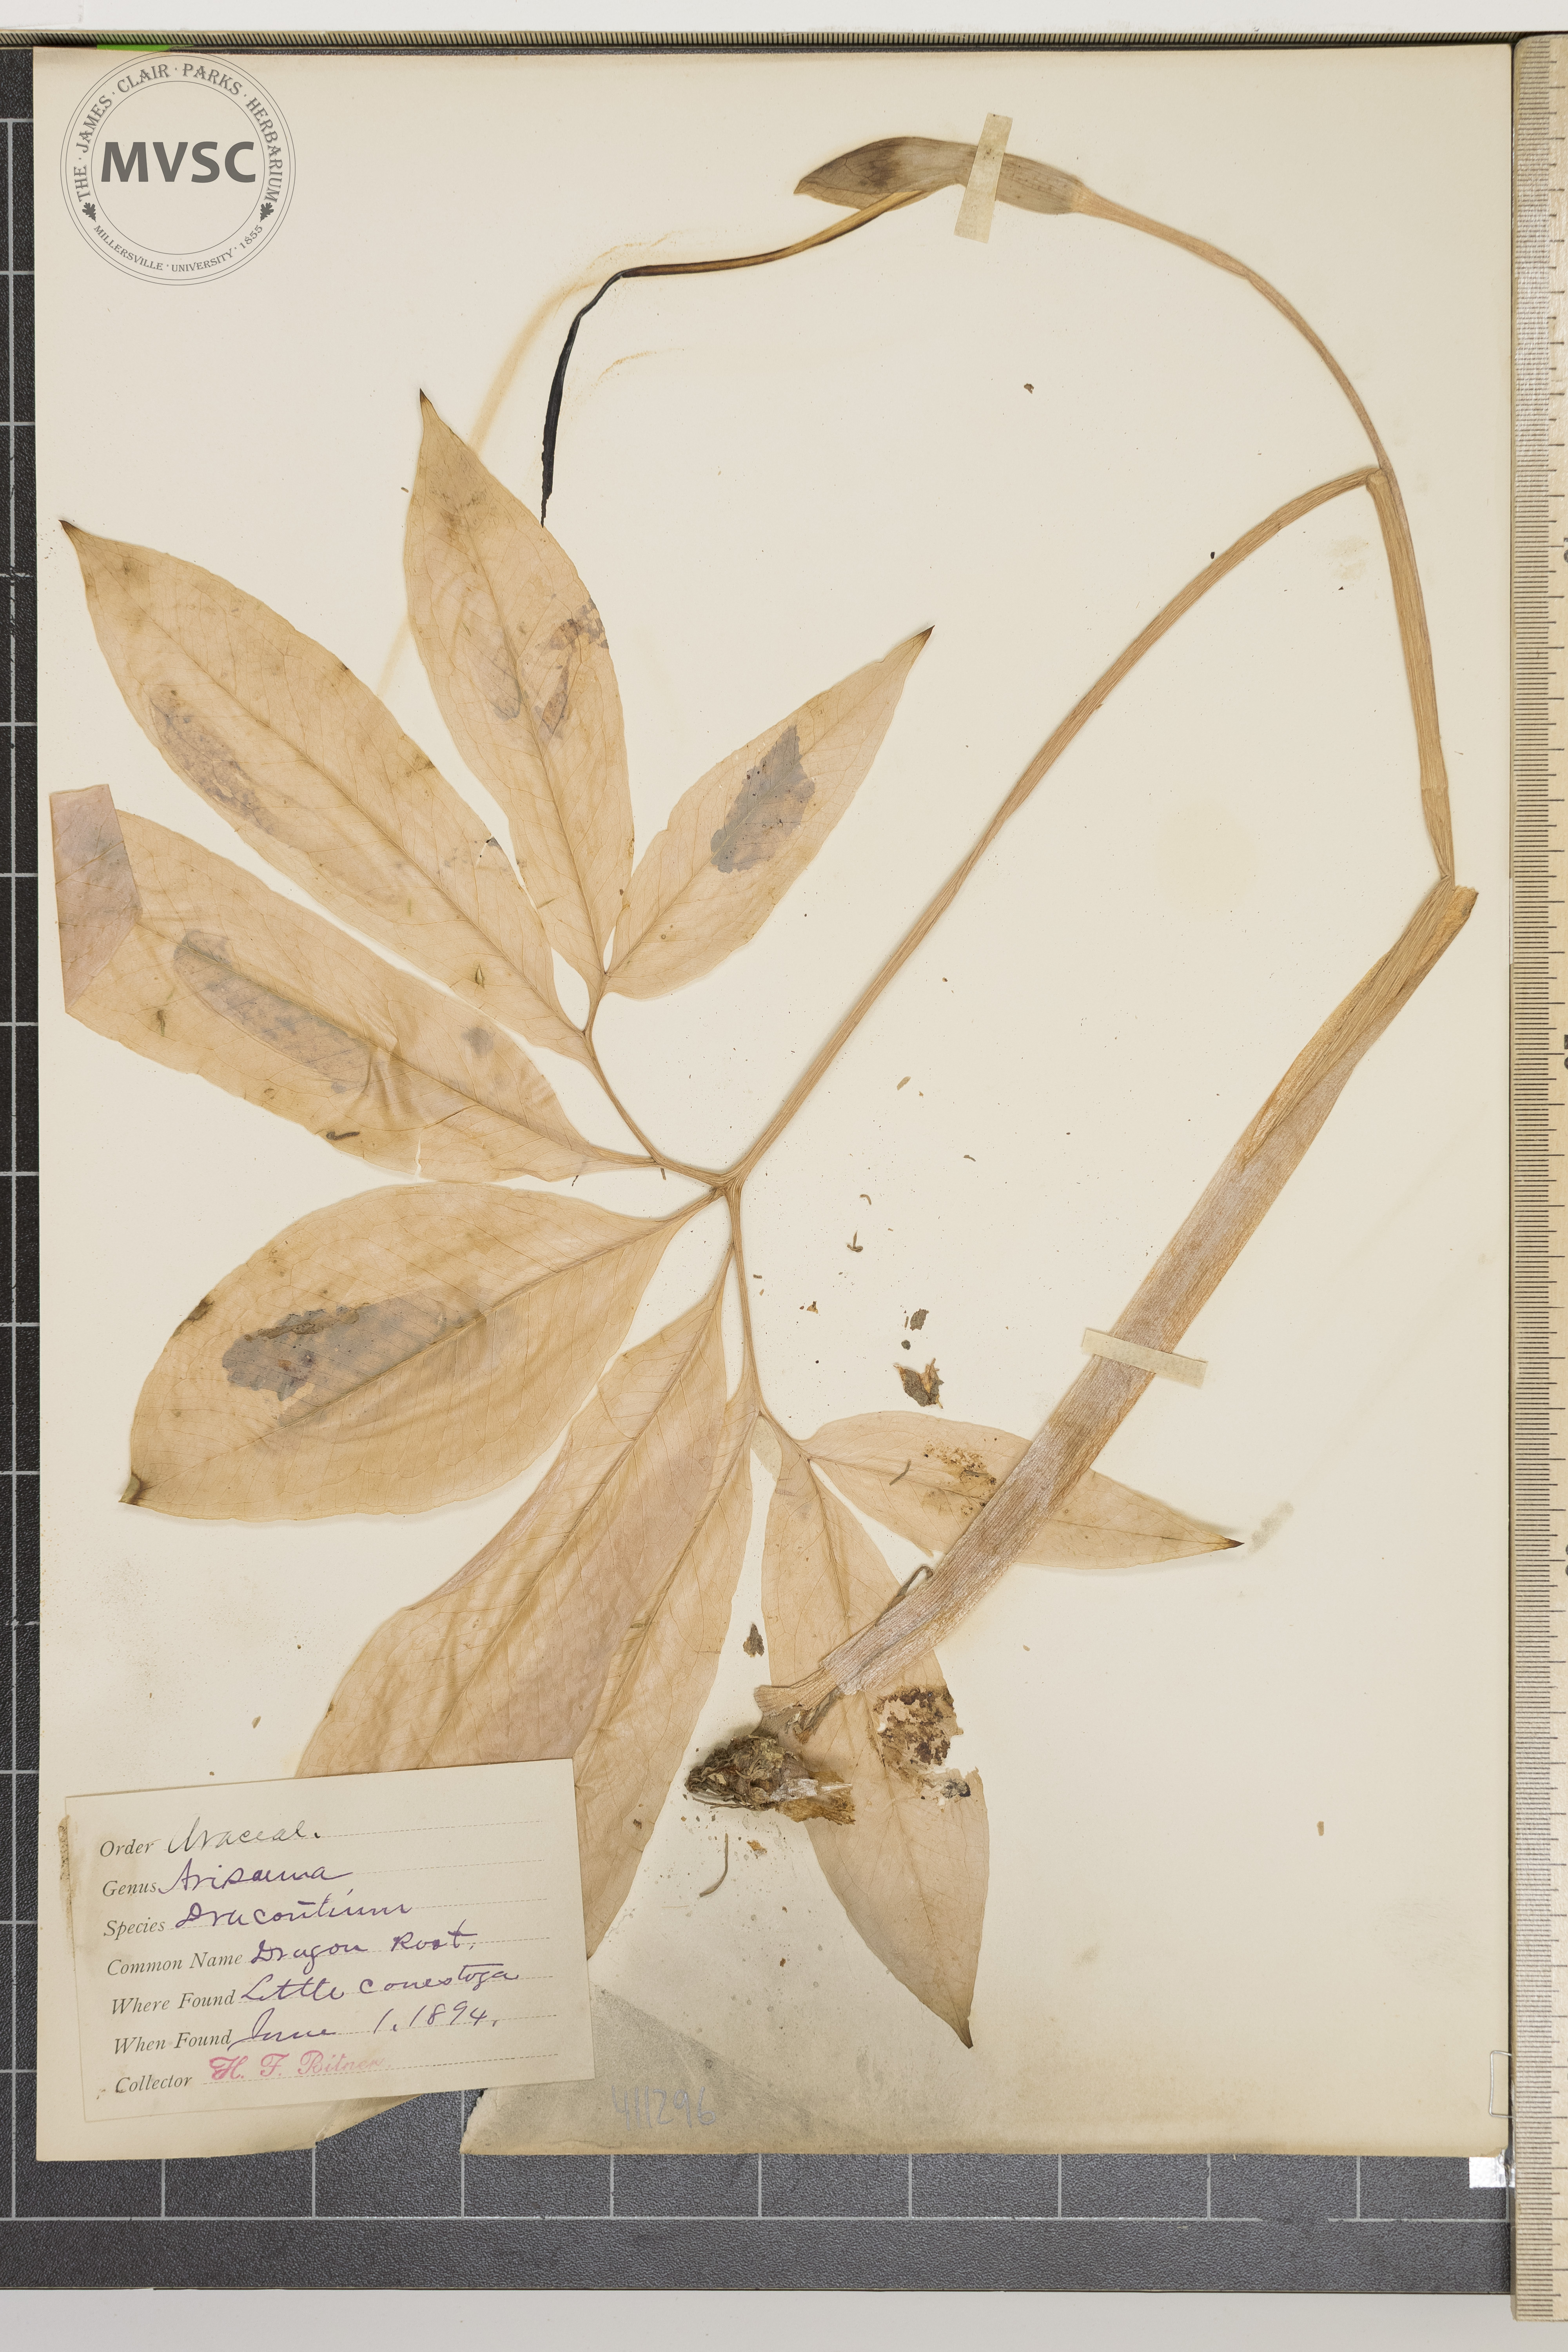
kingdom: Plantae
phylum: Tracheophyta
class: Liliopsida
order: Alismatales
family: Araceae
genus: Arisaema
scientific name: Arisaema dracontium
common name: Dragon-arum
